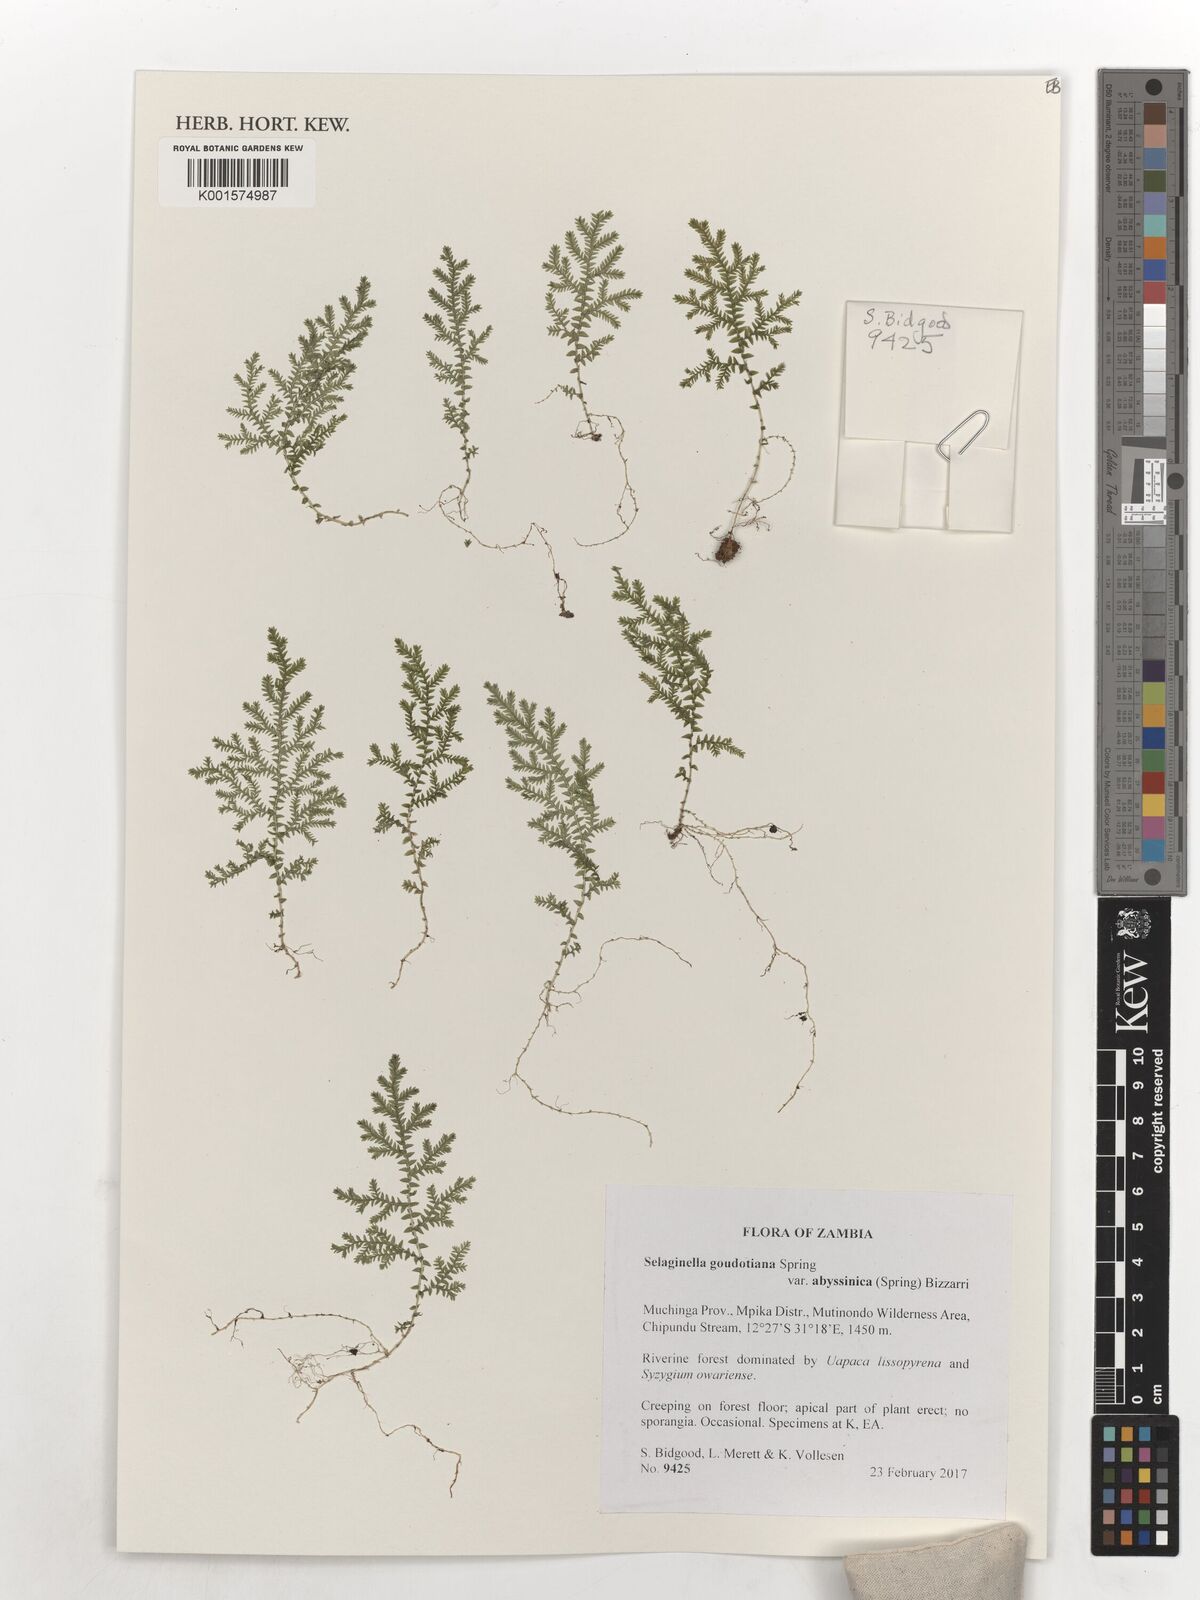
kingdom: Plantae
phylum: Tracheophyta
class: Lycopodiopsida
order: Selaginellales
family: Selaginellaceae
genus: Selaginella
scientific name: Selaginella goudotiana
